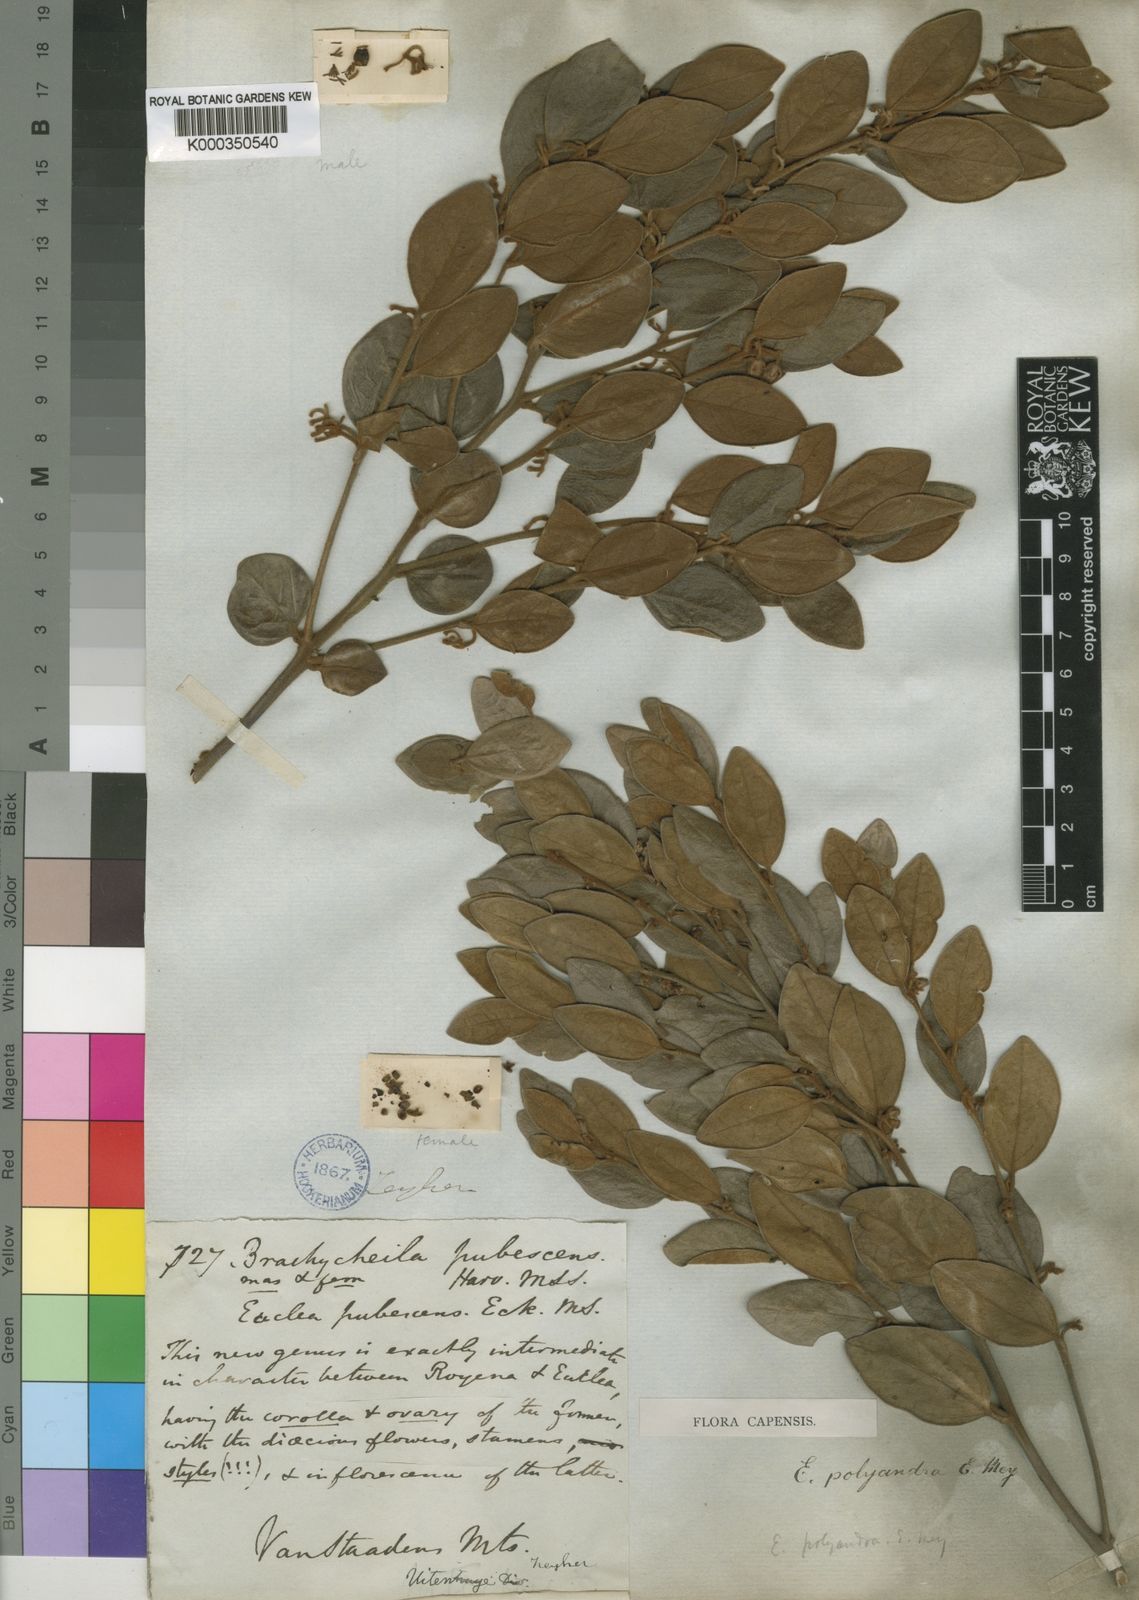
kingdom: Plantae
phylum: Tracheophyta
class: Magnoliopsida
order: Ericales
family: Ebenaceae
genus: Euclea
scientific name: Euclea polyandra
